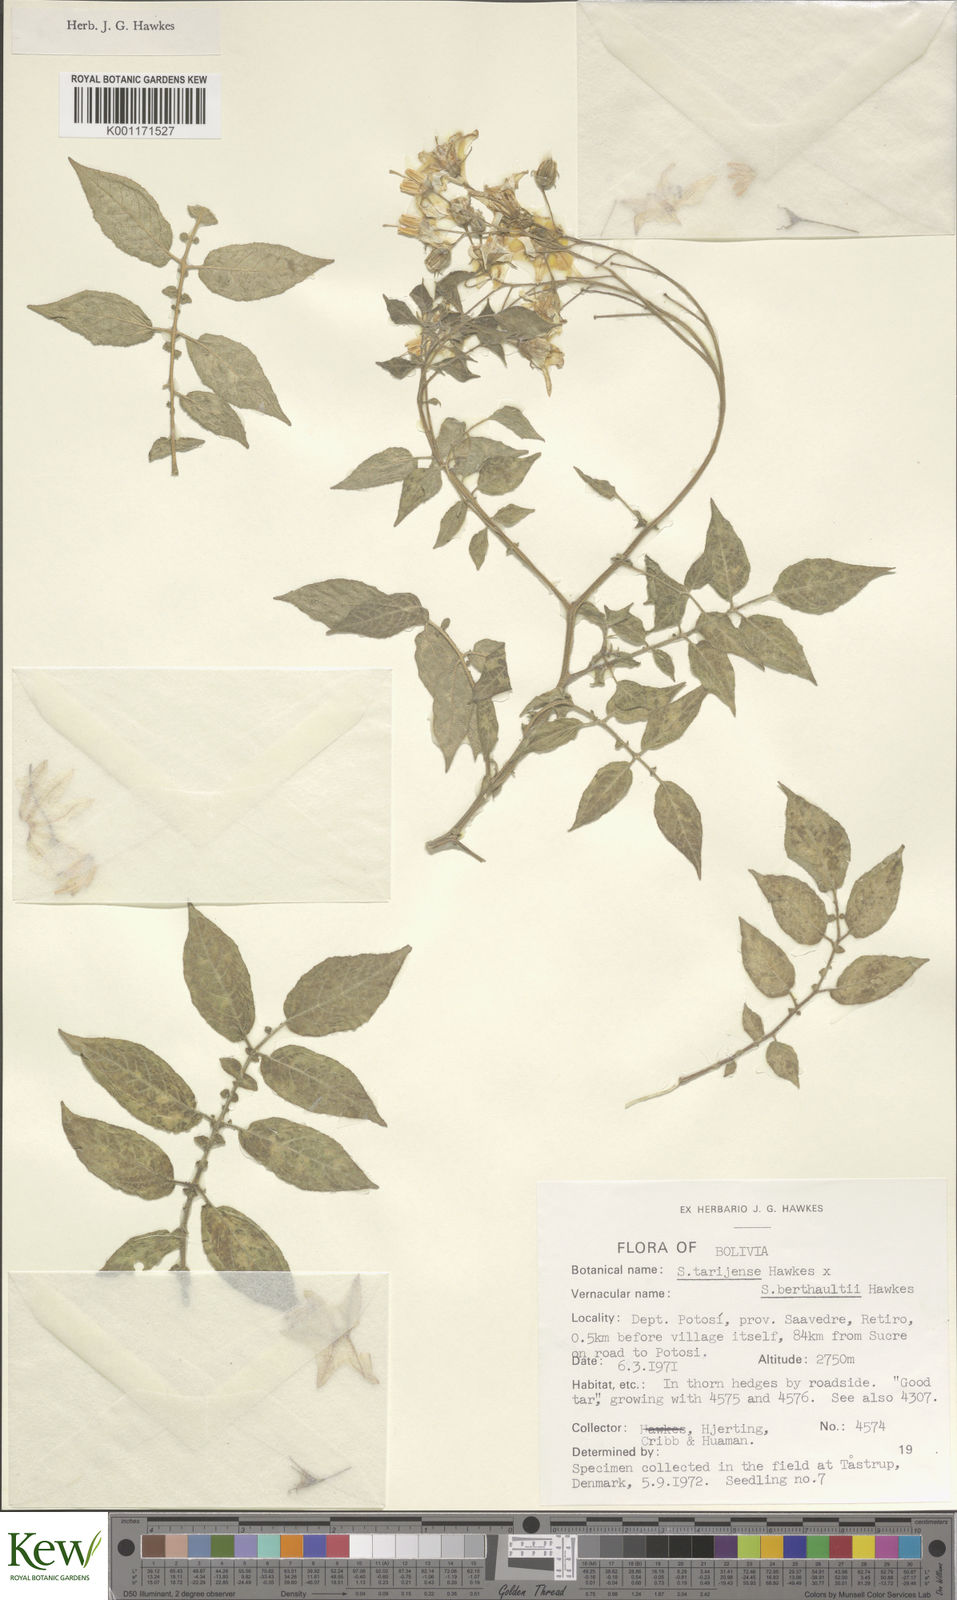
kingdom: Plantae
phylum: Tracheophyta
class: Magnoliopsida
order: Solanales
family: Solanaceae
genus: Solanum
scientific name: Solanum tarijense
